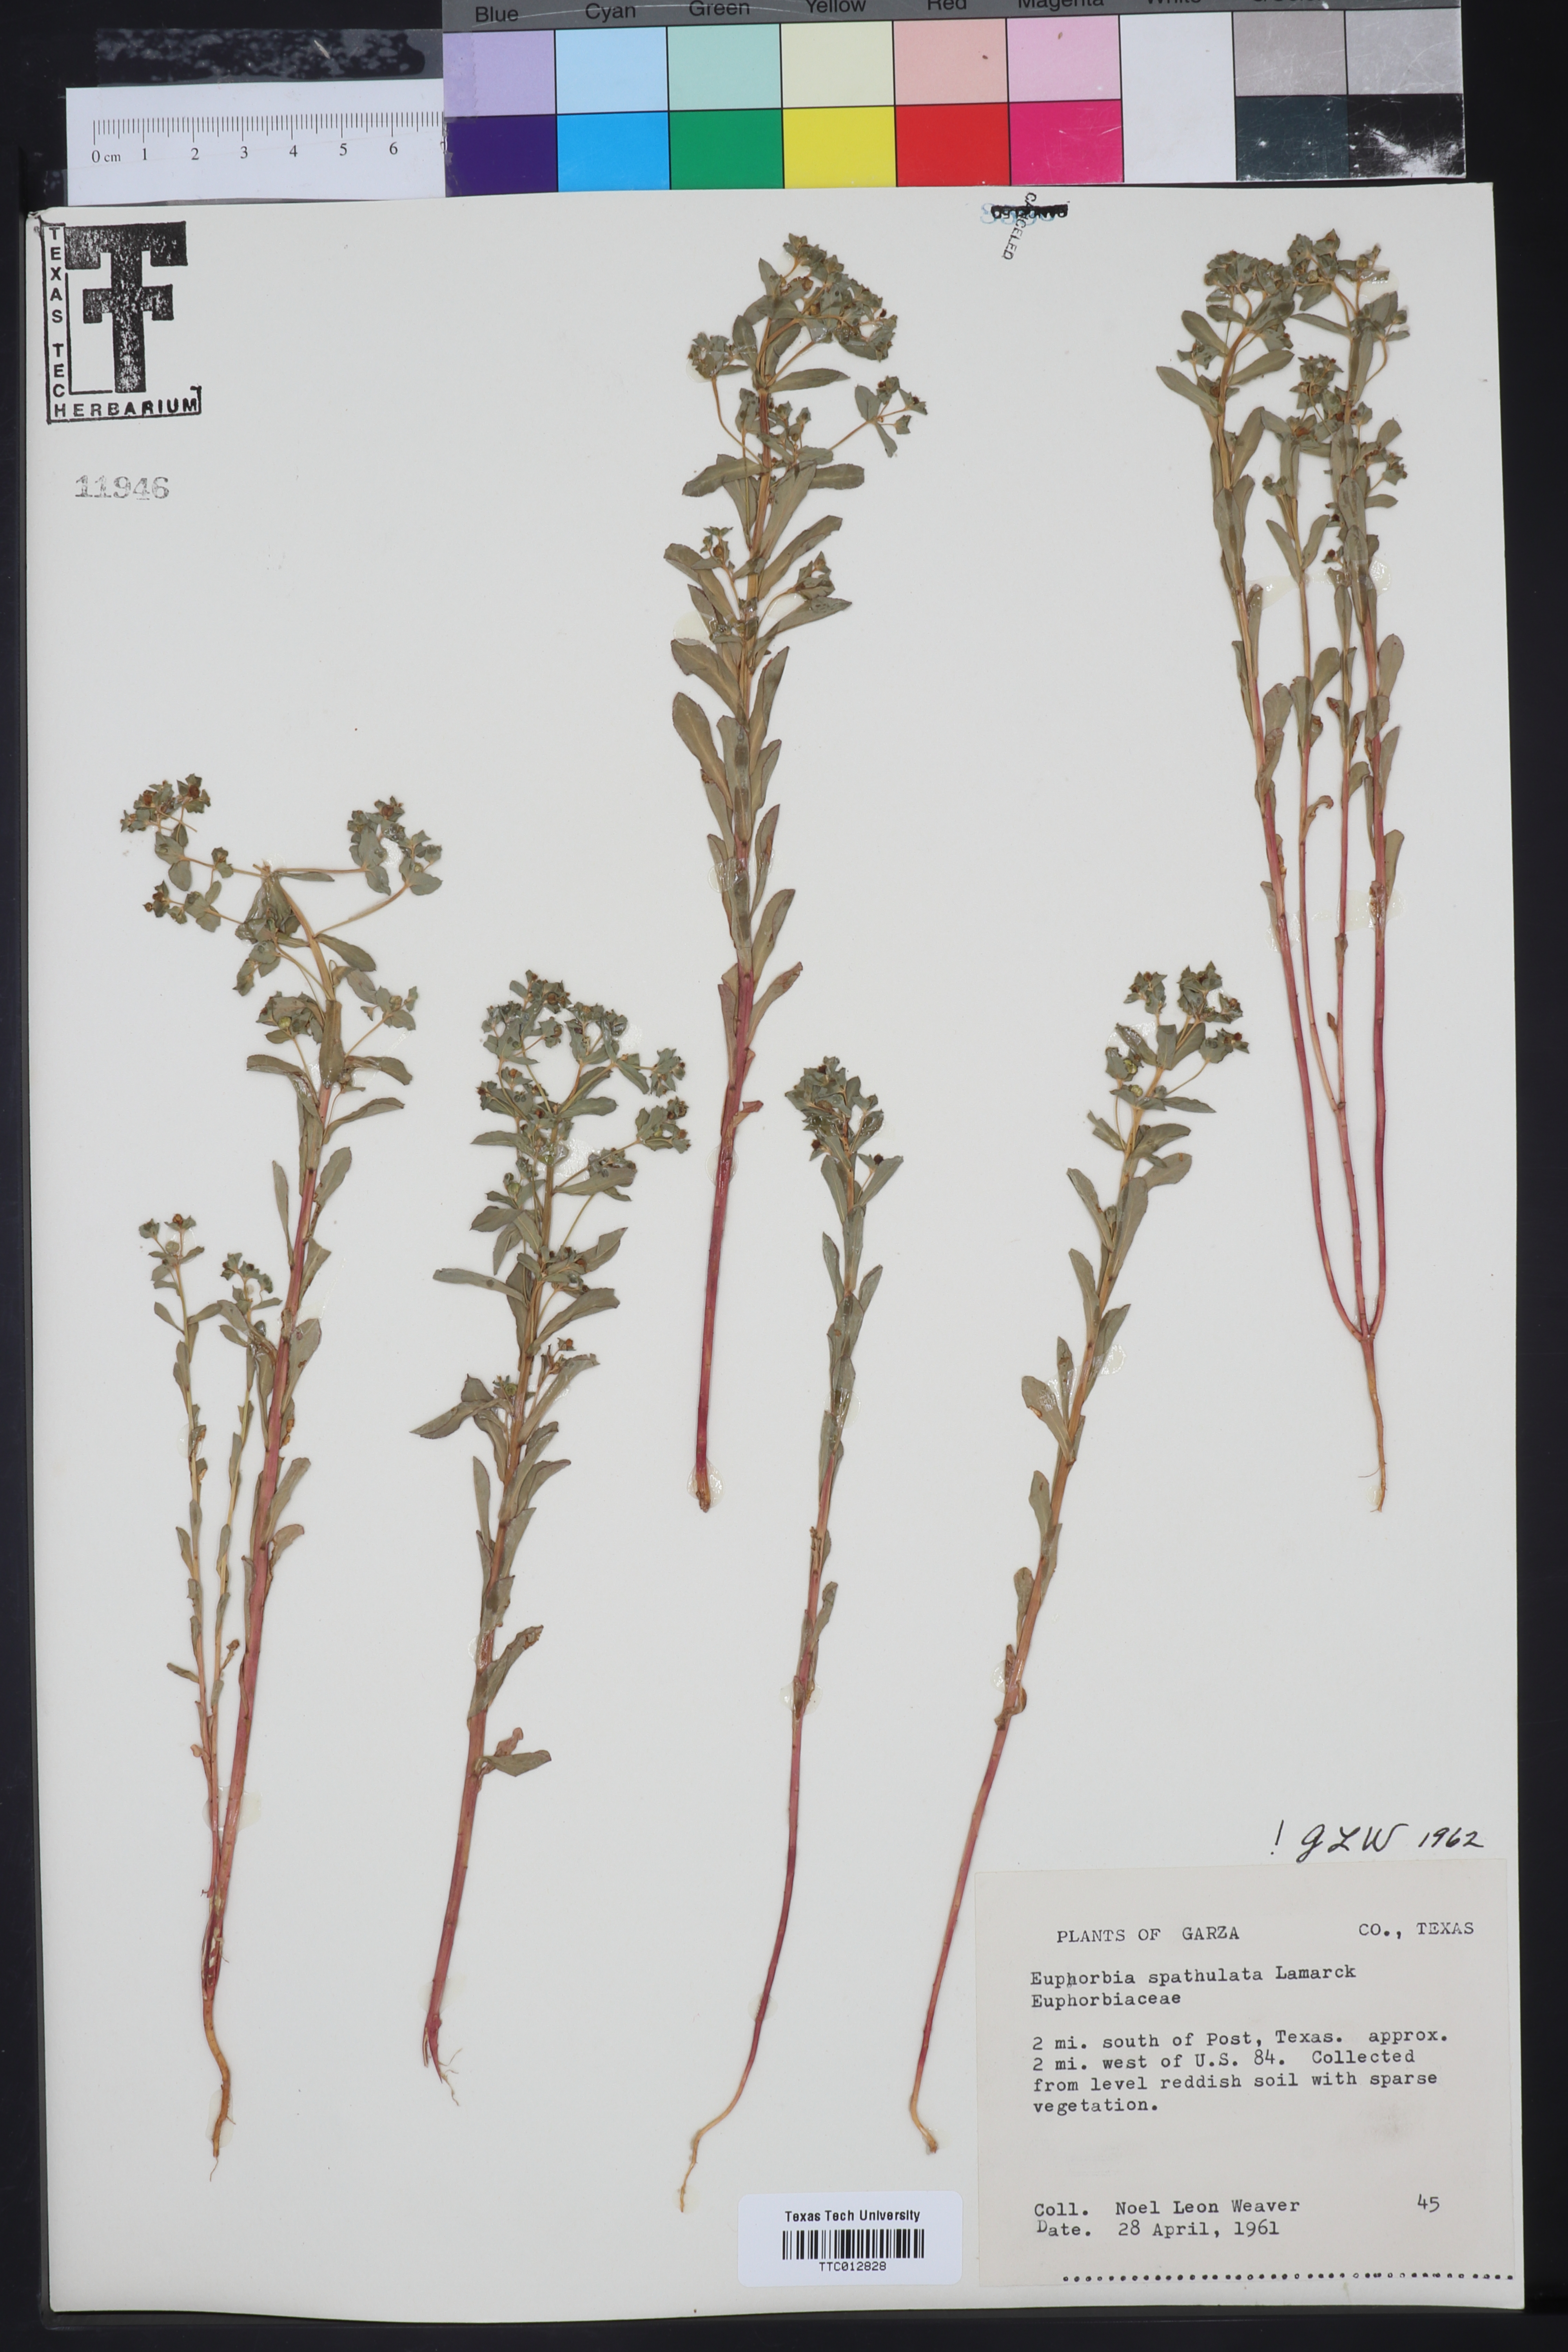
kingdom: Plantae
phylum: Tracheophyta
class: Magnoliopsida
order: Malpighiales
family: Euphorbiaceae
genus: Euphorbia
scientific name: Euphorbia spathulata
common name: Blunt spurge
